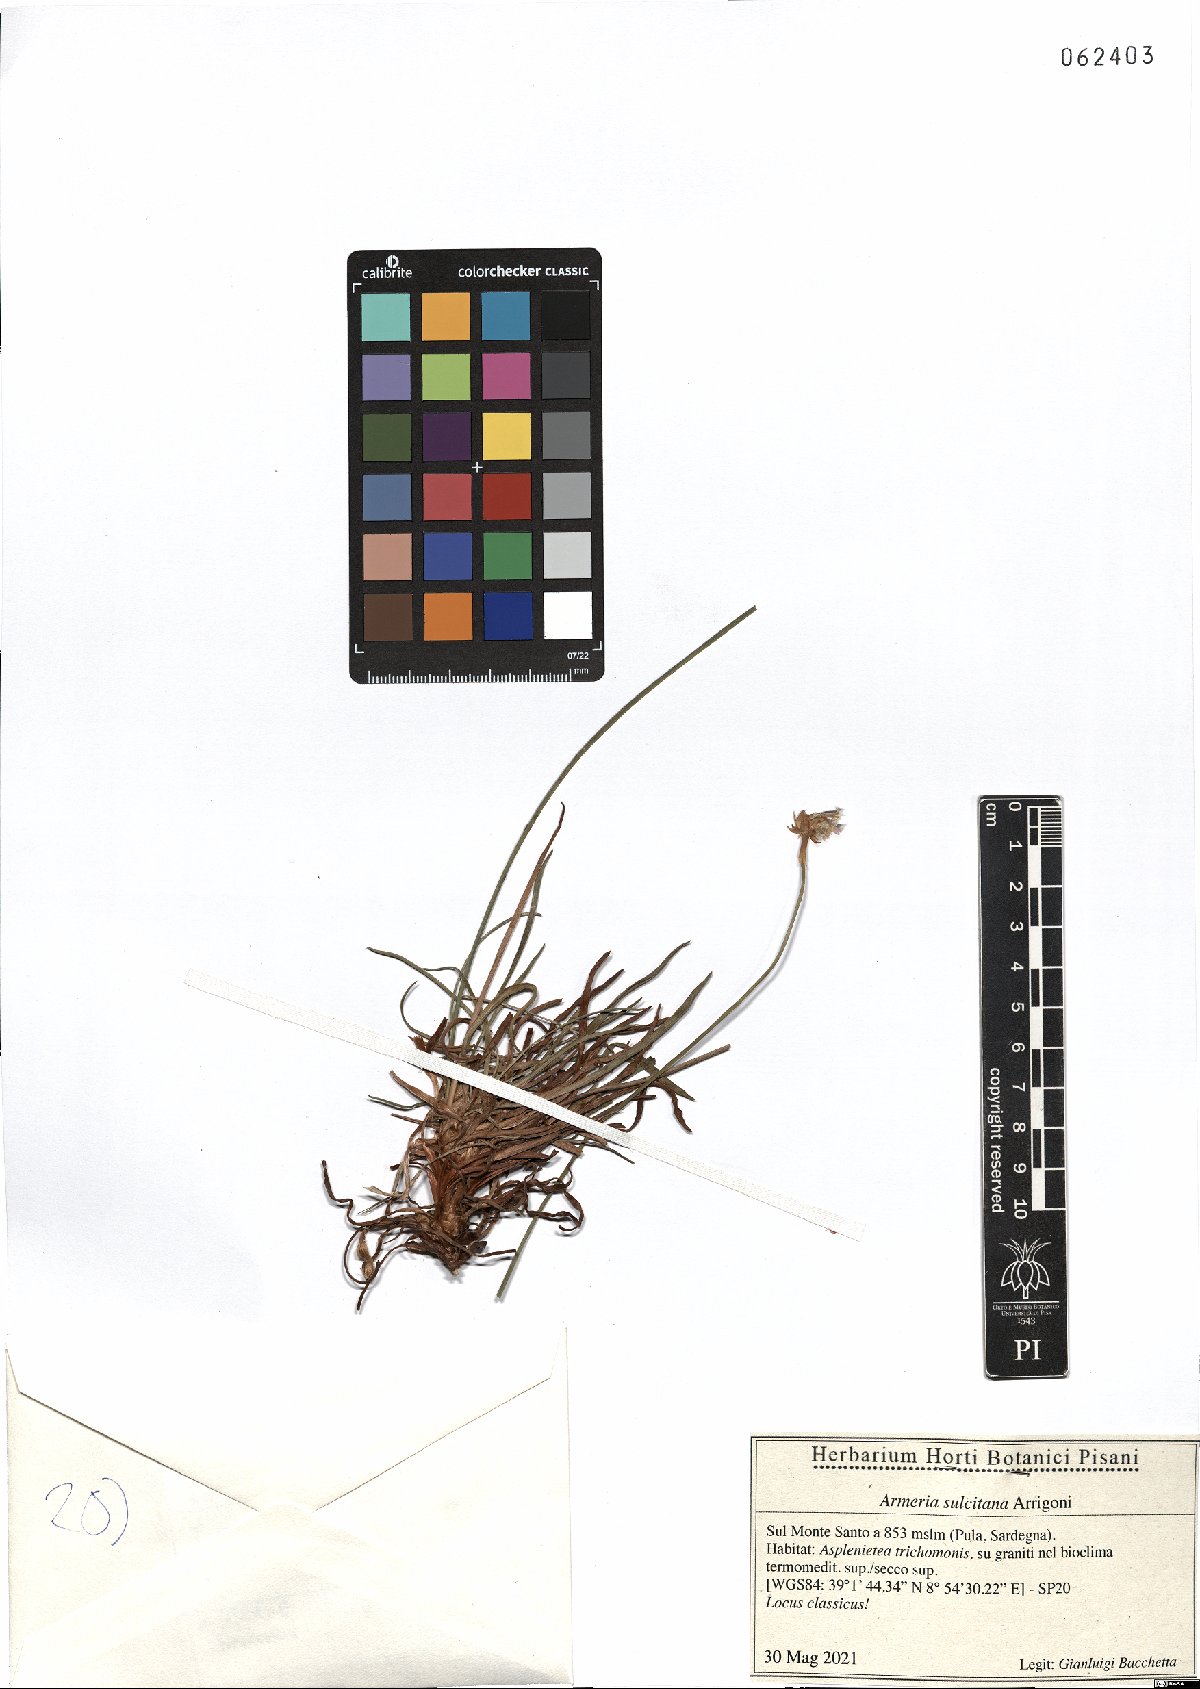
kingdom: Plantae
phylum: Tracheophyta
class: Magnoliopsida
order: Caryophyllales
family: Plumbaginaceae
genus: Armeria
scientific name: Armeria sulcitana
